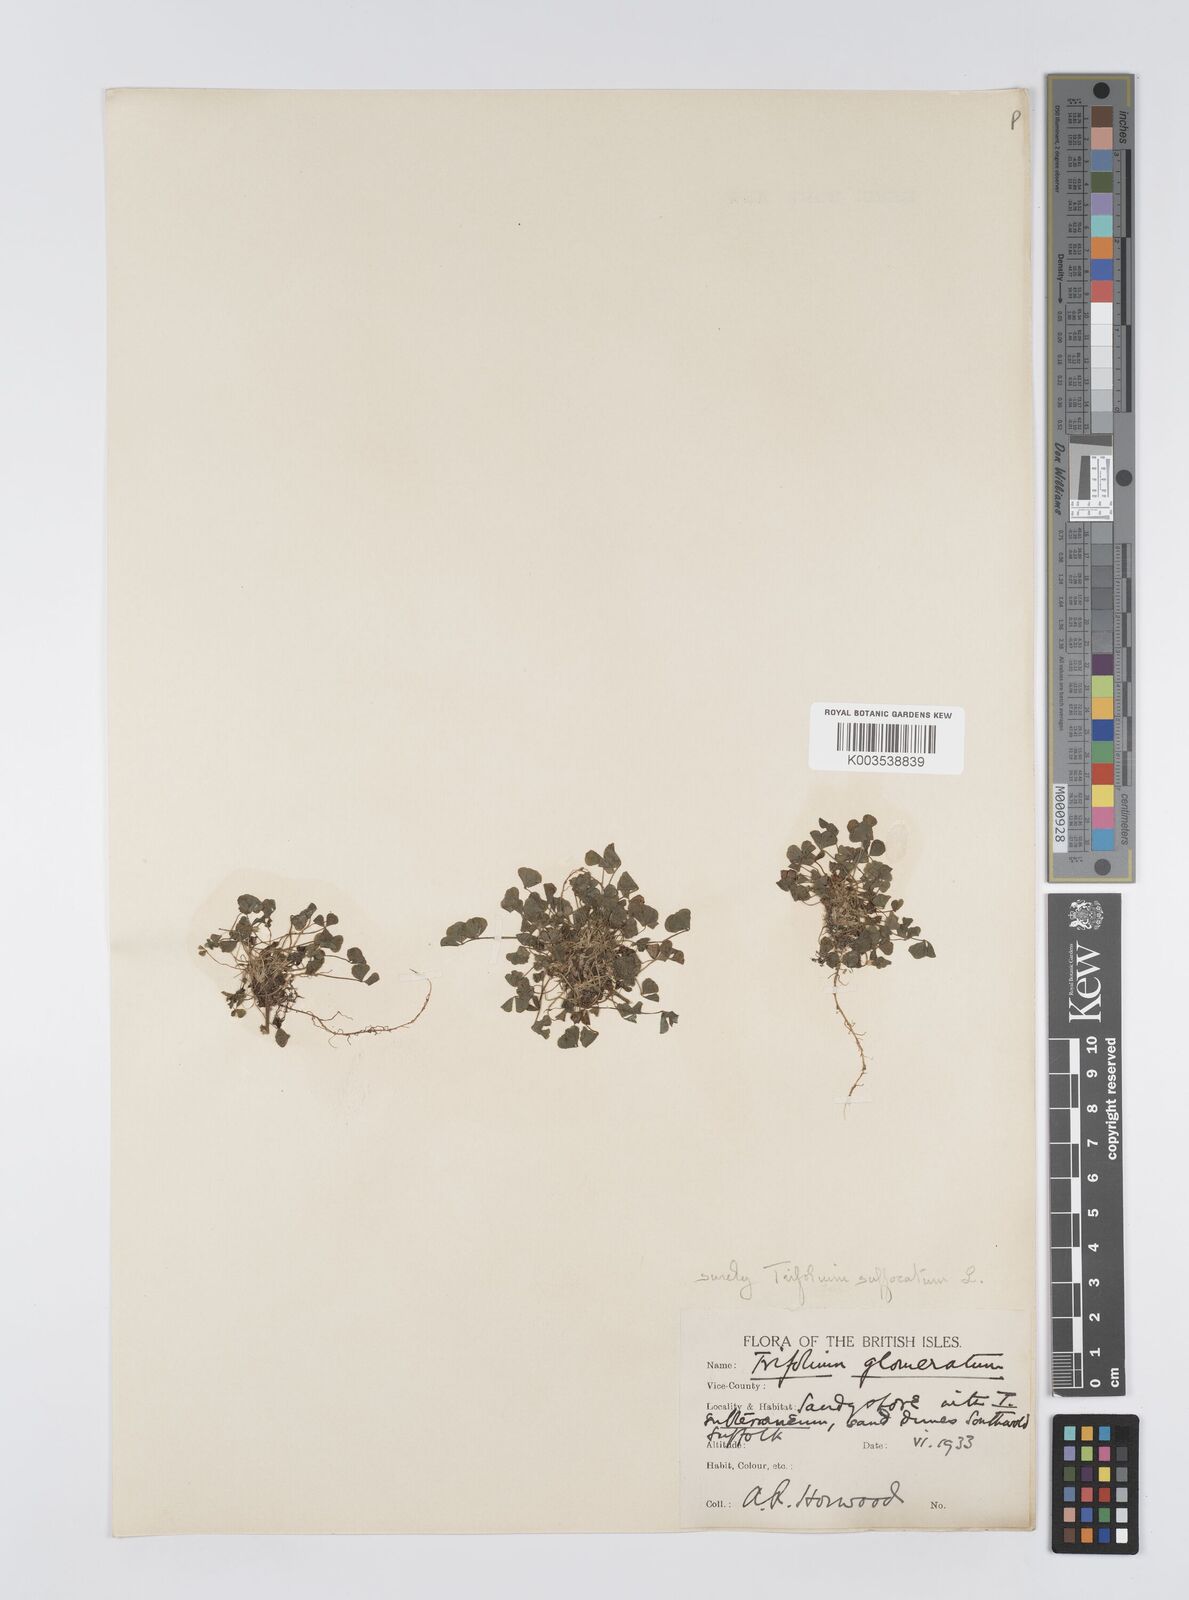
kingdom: Plantae
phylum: Tracheophyta
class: Magnoliopsida
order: Fabales
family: Fabaceae
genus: Trifolium
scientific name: Trifolium suffocatum
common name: Suffocated clover
